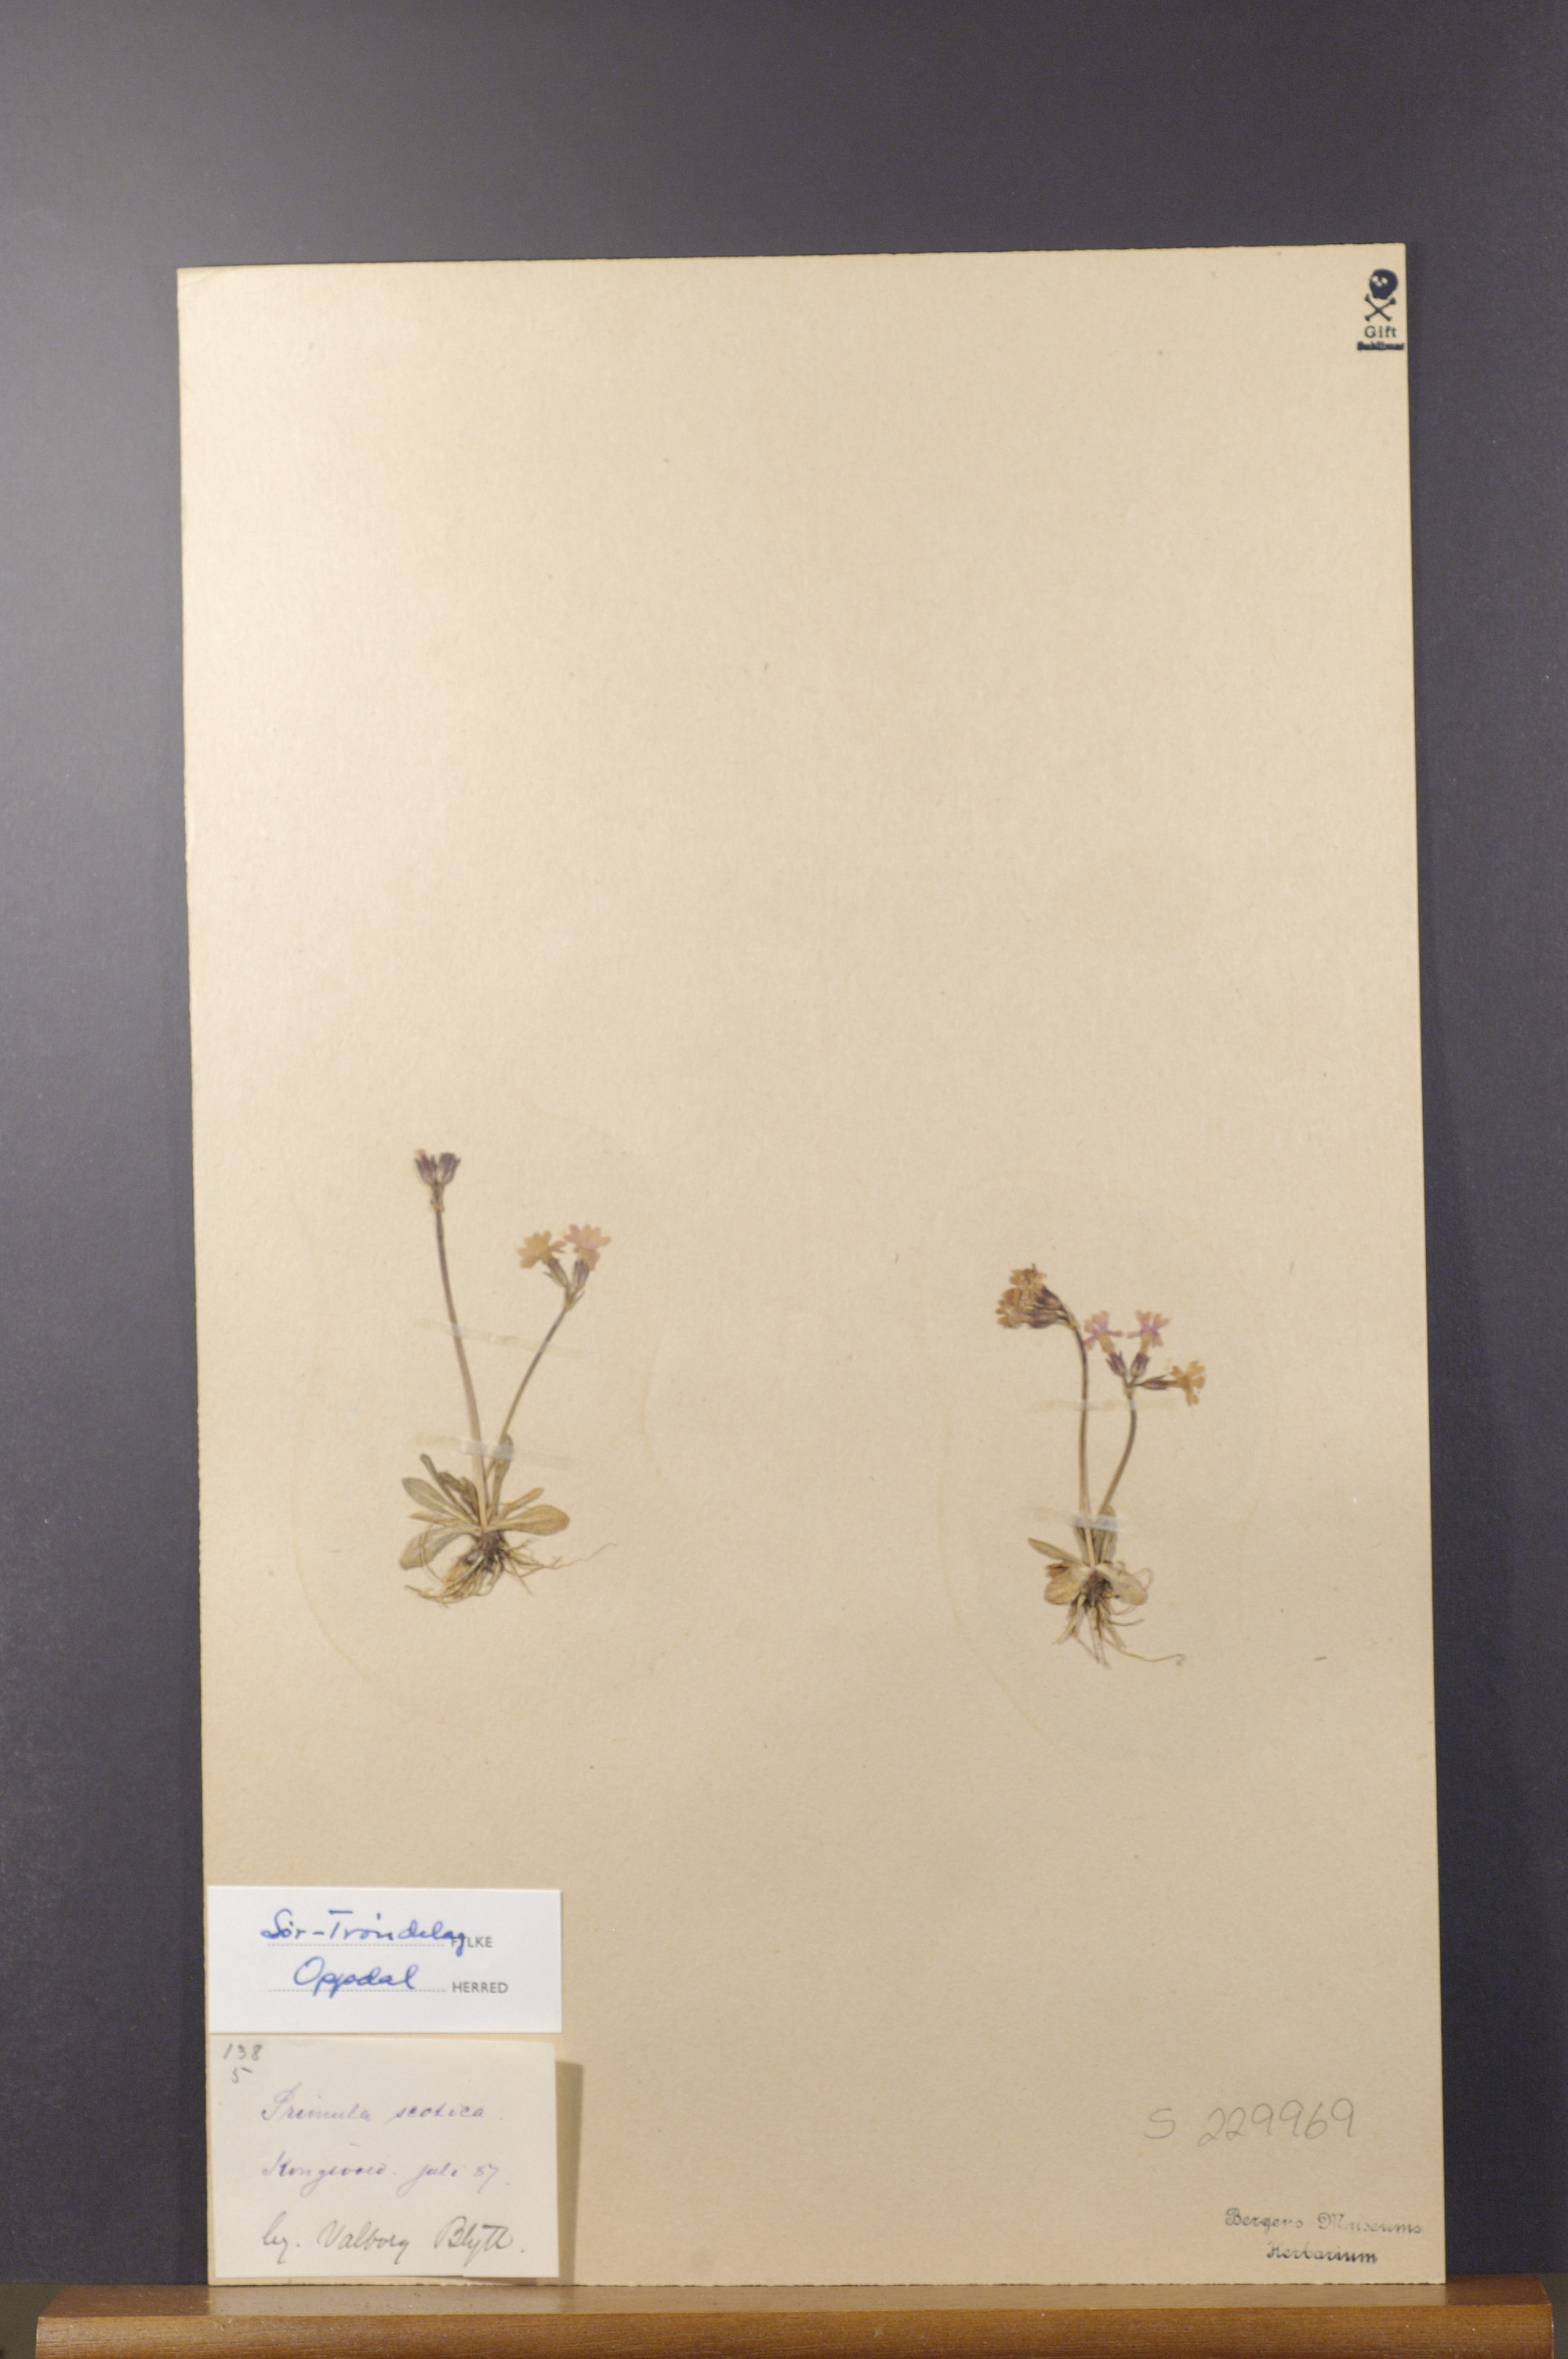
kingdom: Plantae
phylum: Tracheophyta
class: Magnoliopsida
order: Ericales
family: Primulaceae
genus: Primula
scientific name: Primula scandinavica
